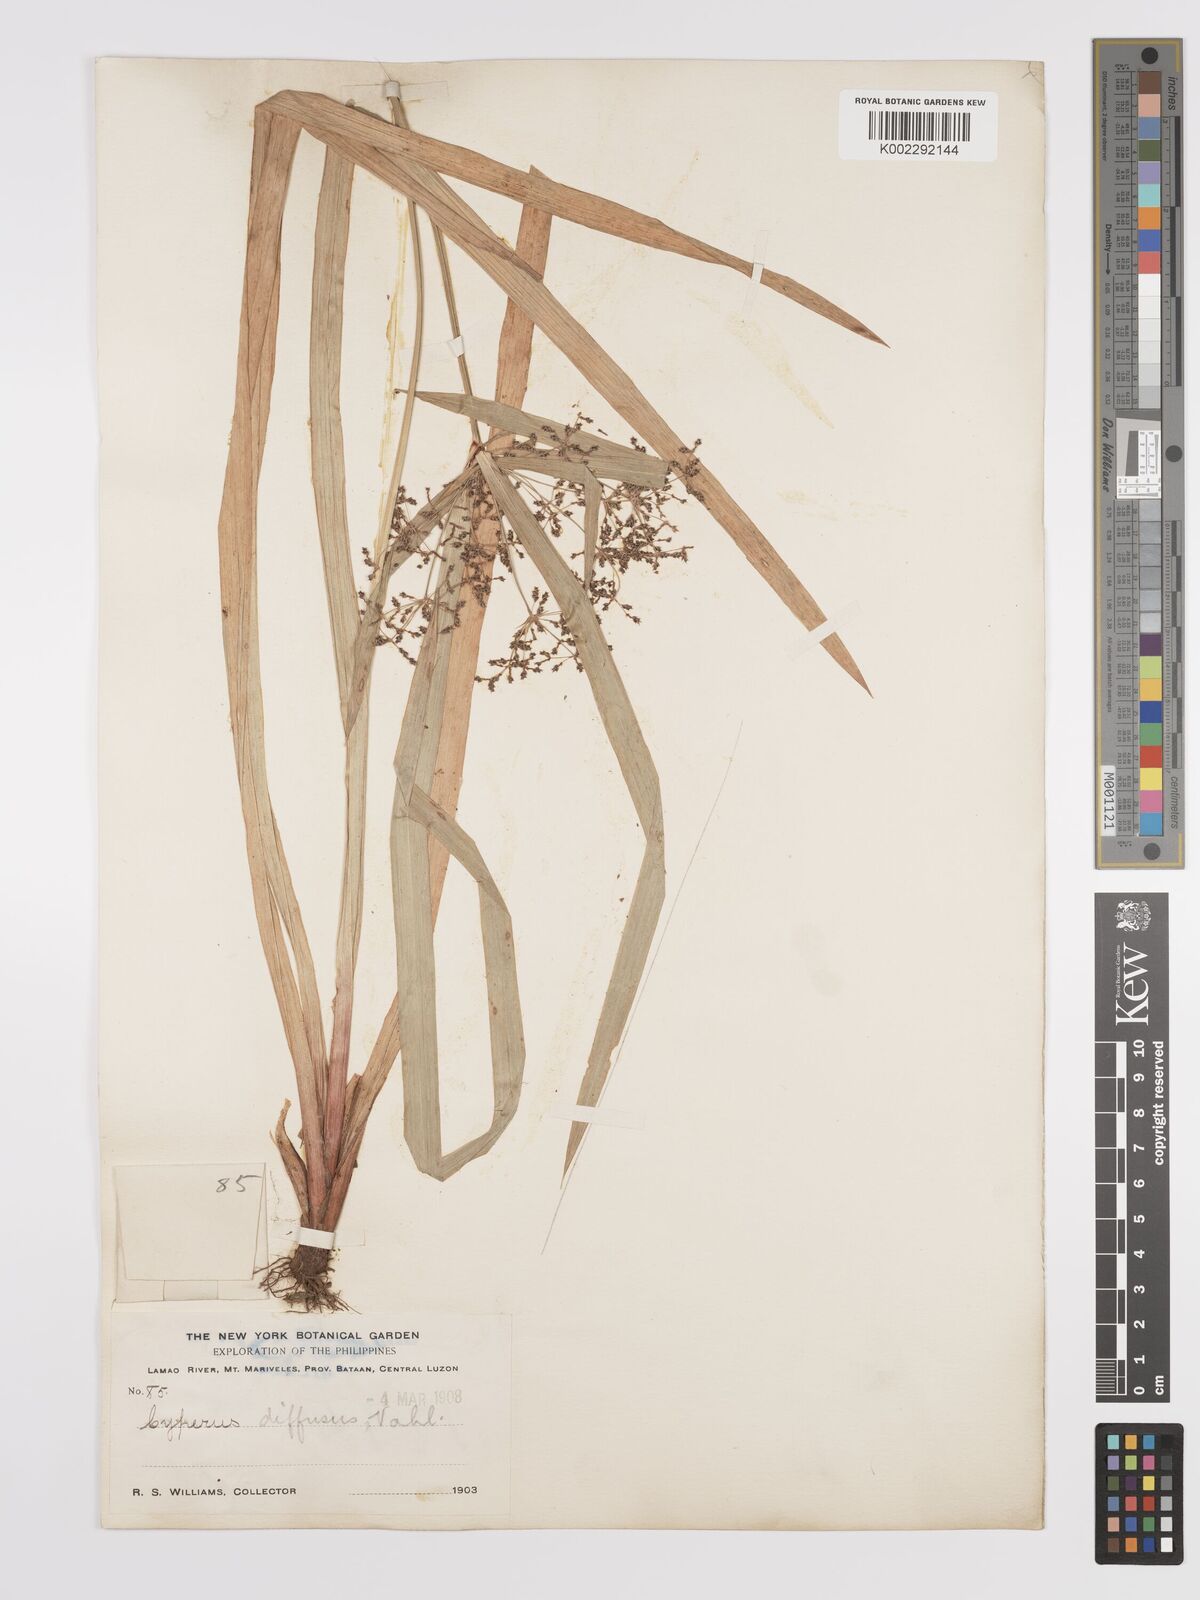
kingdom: Plantae
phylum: Tracheophyta
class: Liliopsida
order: Poales
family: Cyperaceae
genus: Cyperus
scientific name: Cyperus diffusus
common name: Dwarf umbrella grass
